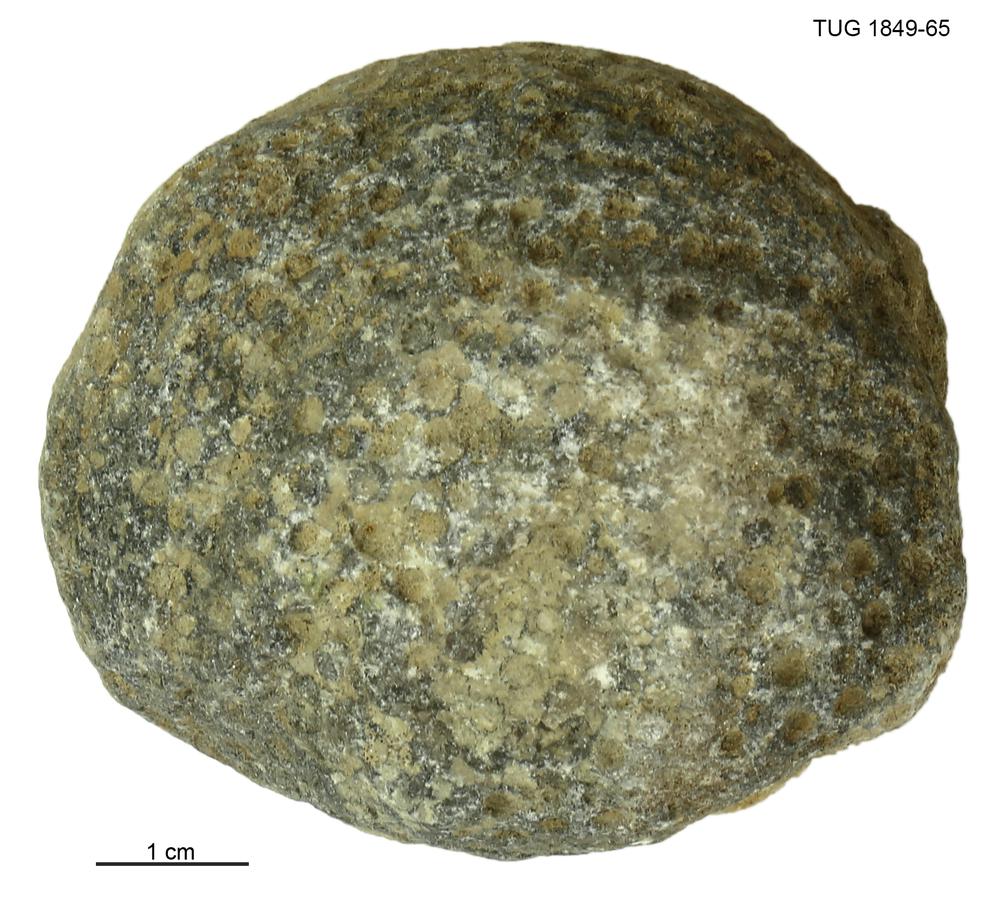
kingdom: Animalia
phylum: Xenacoelomorpha
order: Acoela
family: Proporidae
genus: Propora
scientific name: Propora
